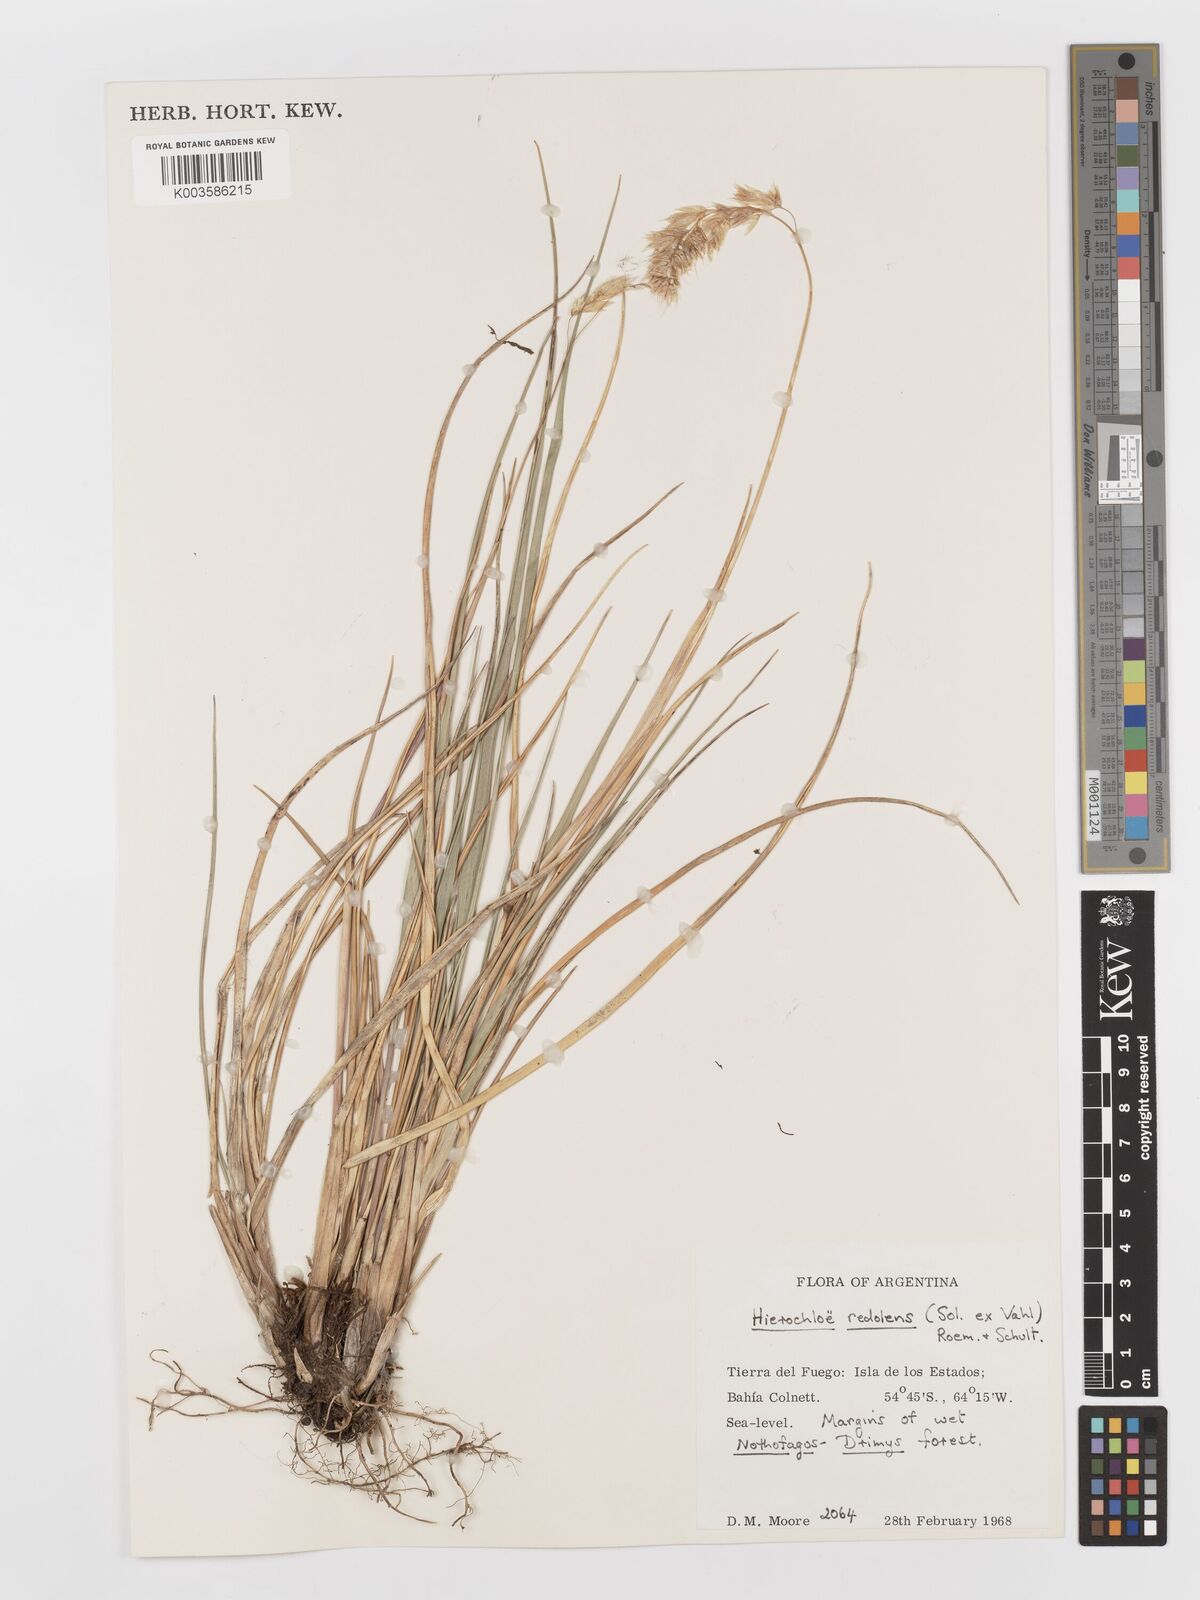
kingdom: Plantae
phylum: Tracheophyta
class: Liliopsida
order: Poales
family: Poaceae
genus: Anthoxanthum
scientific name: Anthoxanthum redolens
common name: Sweet holy grass
